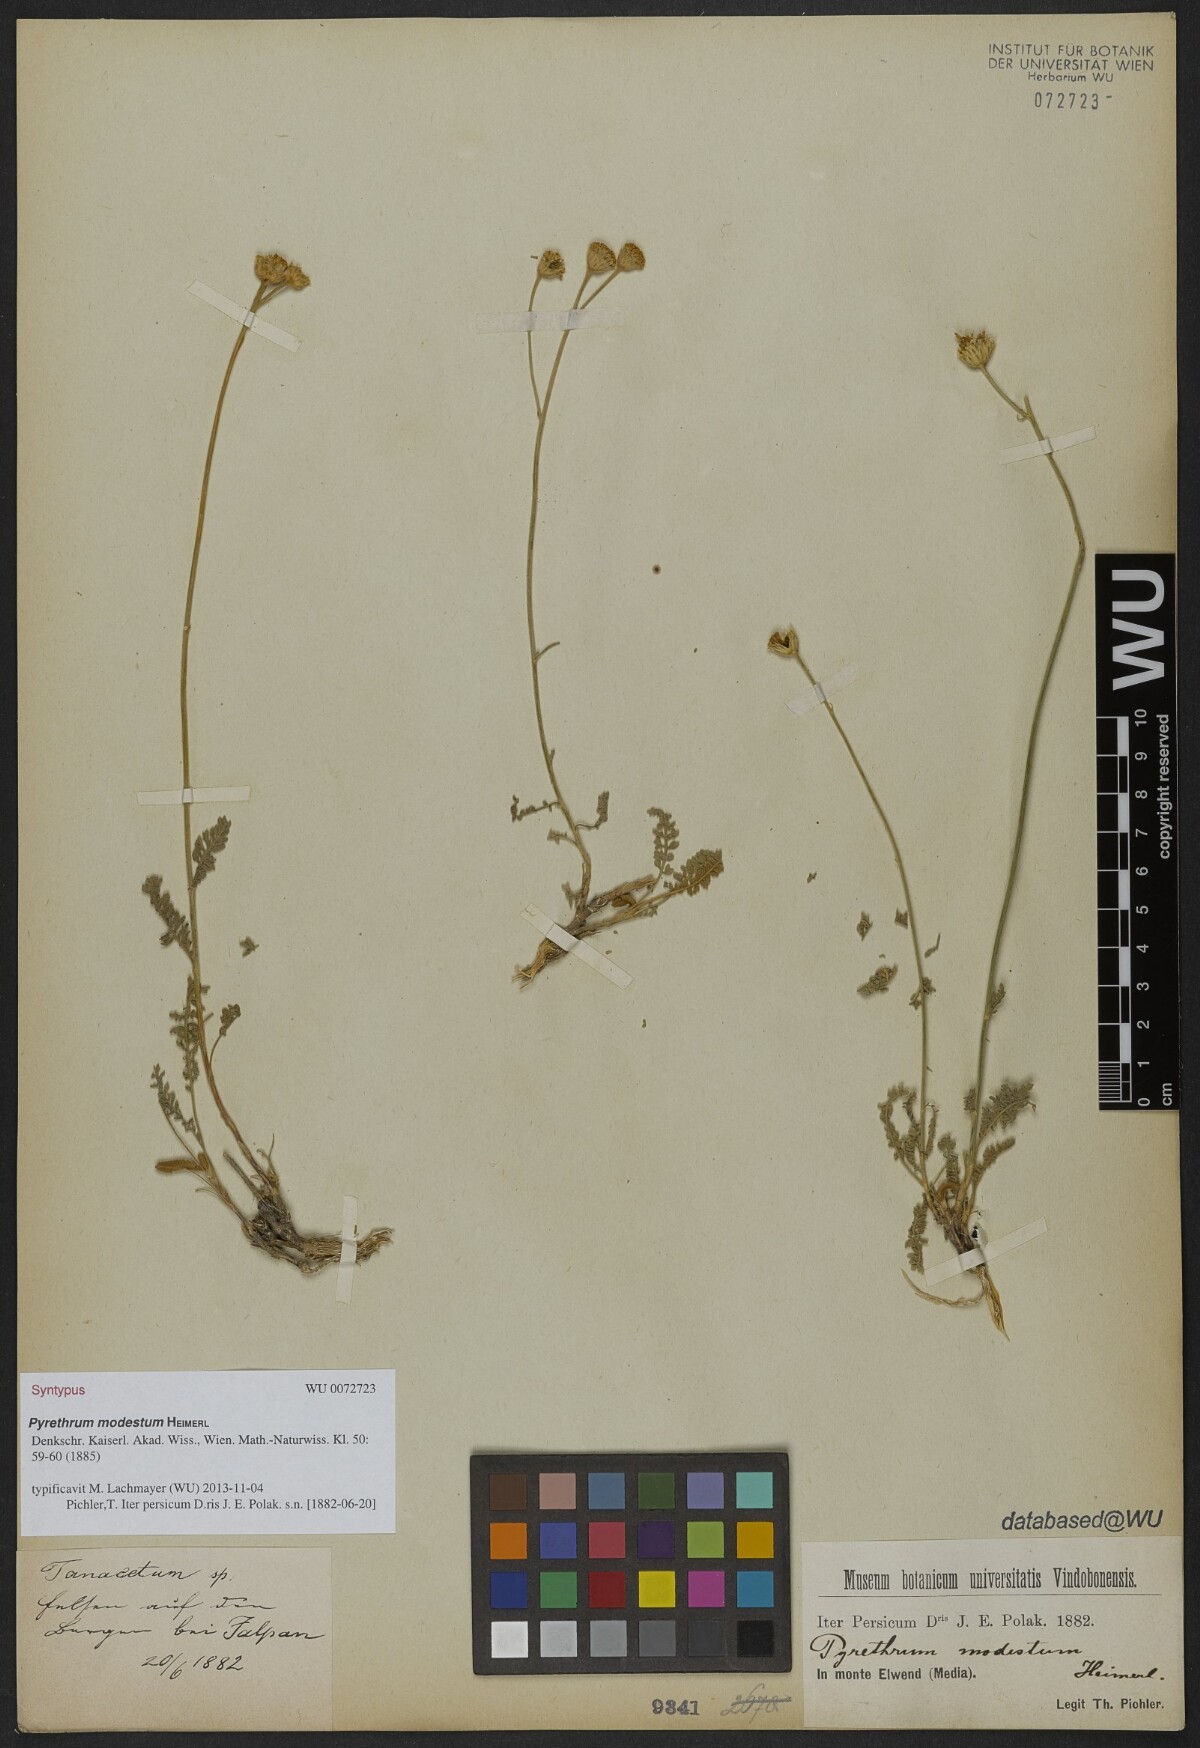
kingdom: Plantae
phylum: Tracheophyta
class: Magnoliopsida
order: Asterales
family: Asteraceae
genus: Tanacetum
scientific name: Tanacetum canescens
